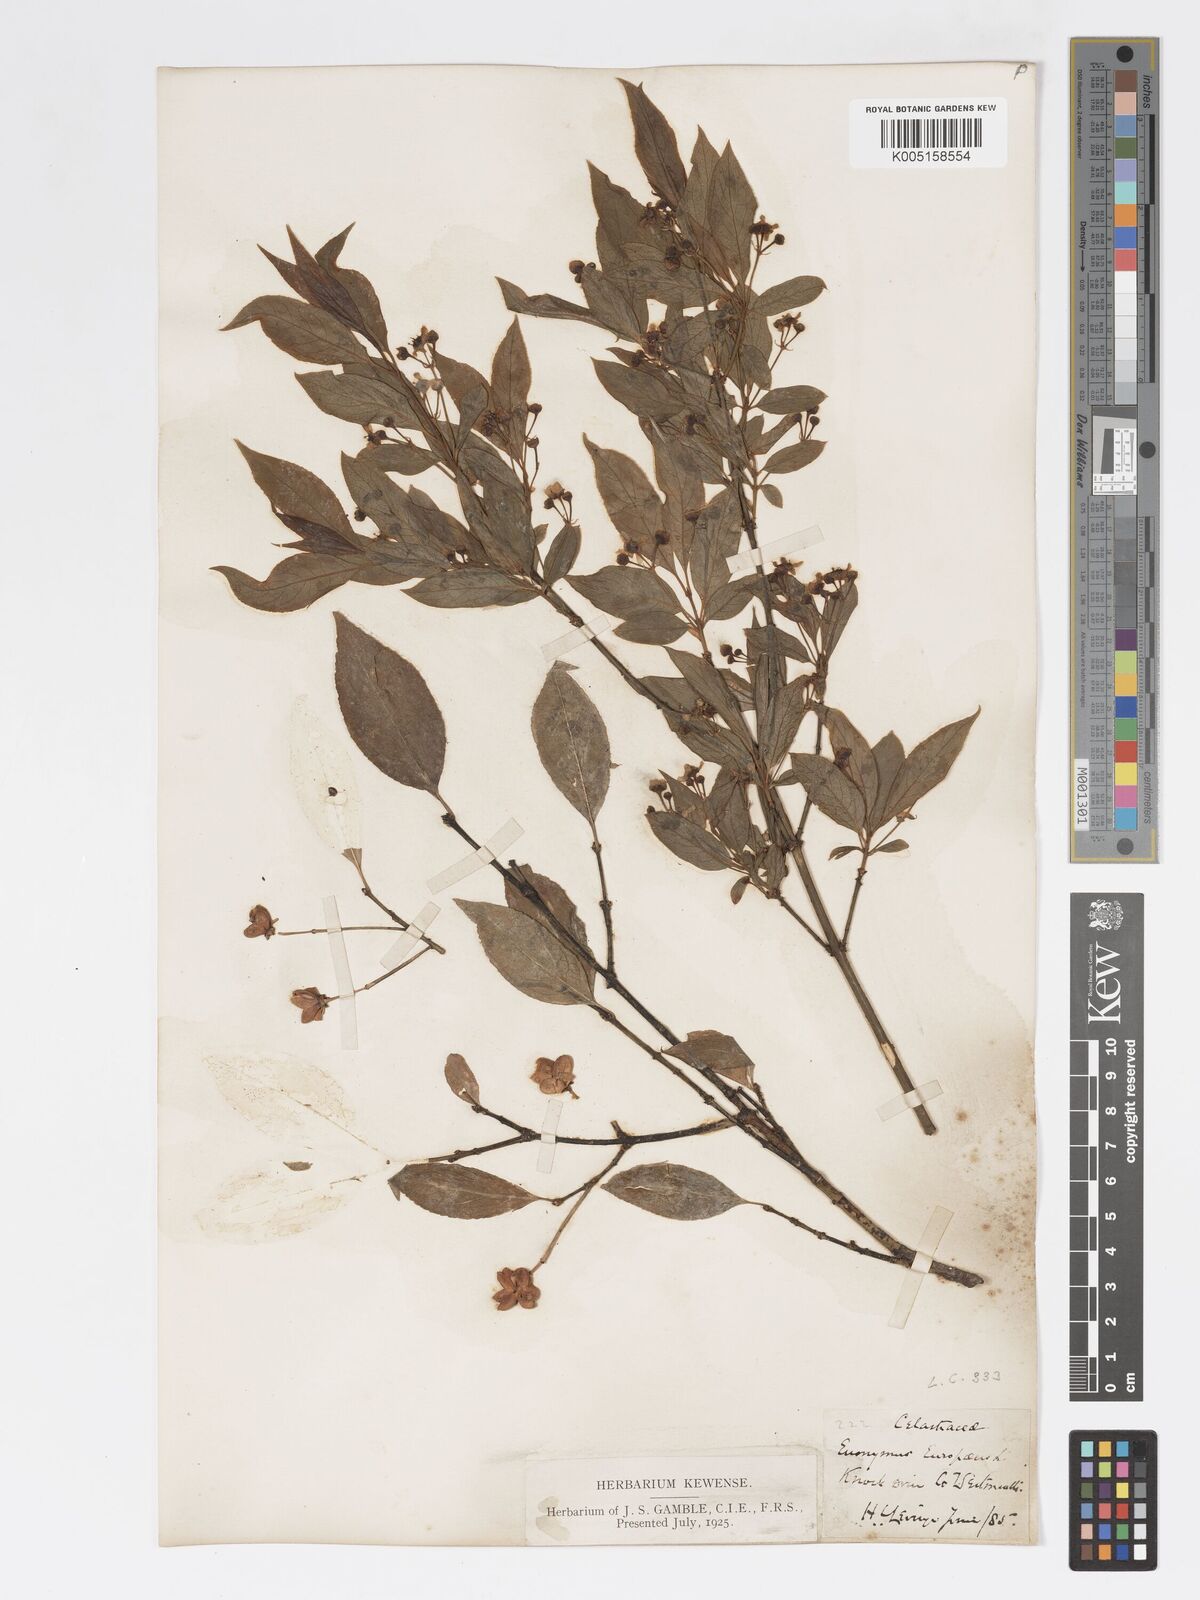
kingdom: Plantae
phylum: Tracheophyta
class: Magnoliopsida
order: Celastrales
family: Celastraceae
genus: Euonymus
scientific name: Euonymus europaeus
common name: Spindle
